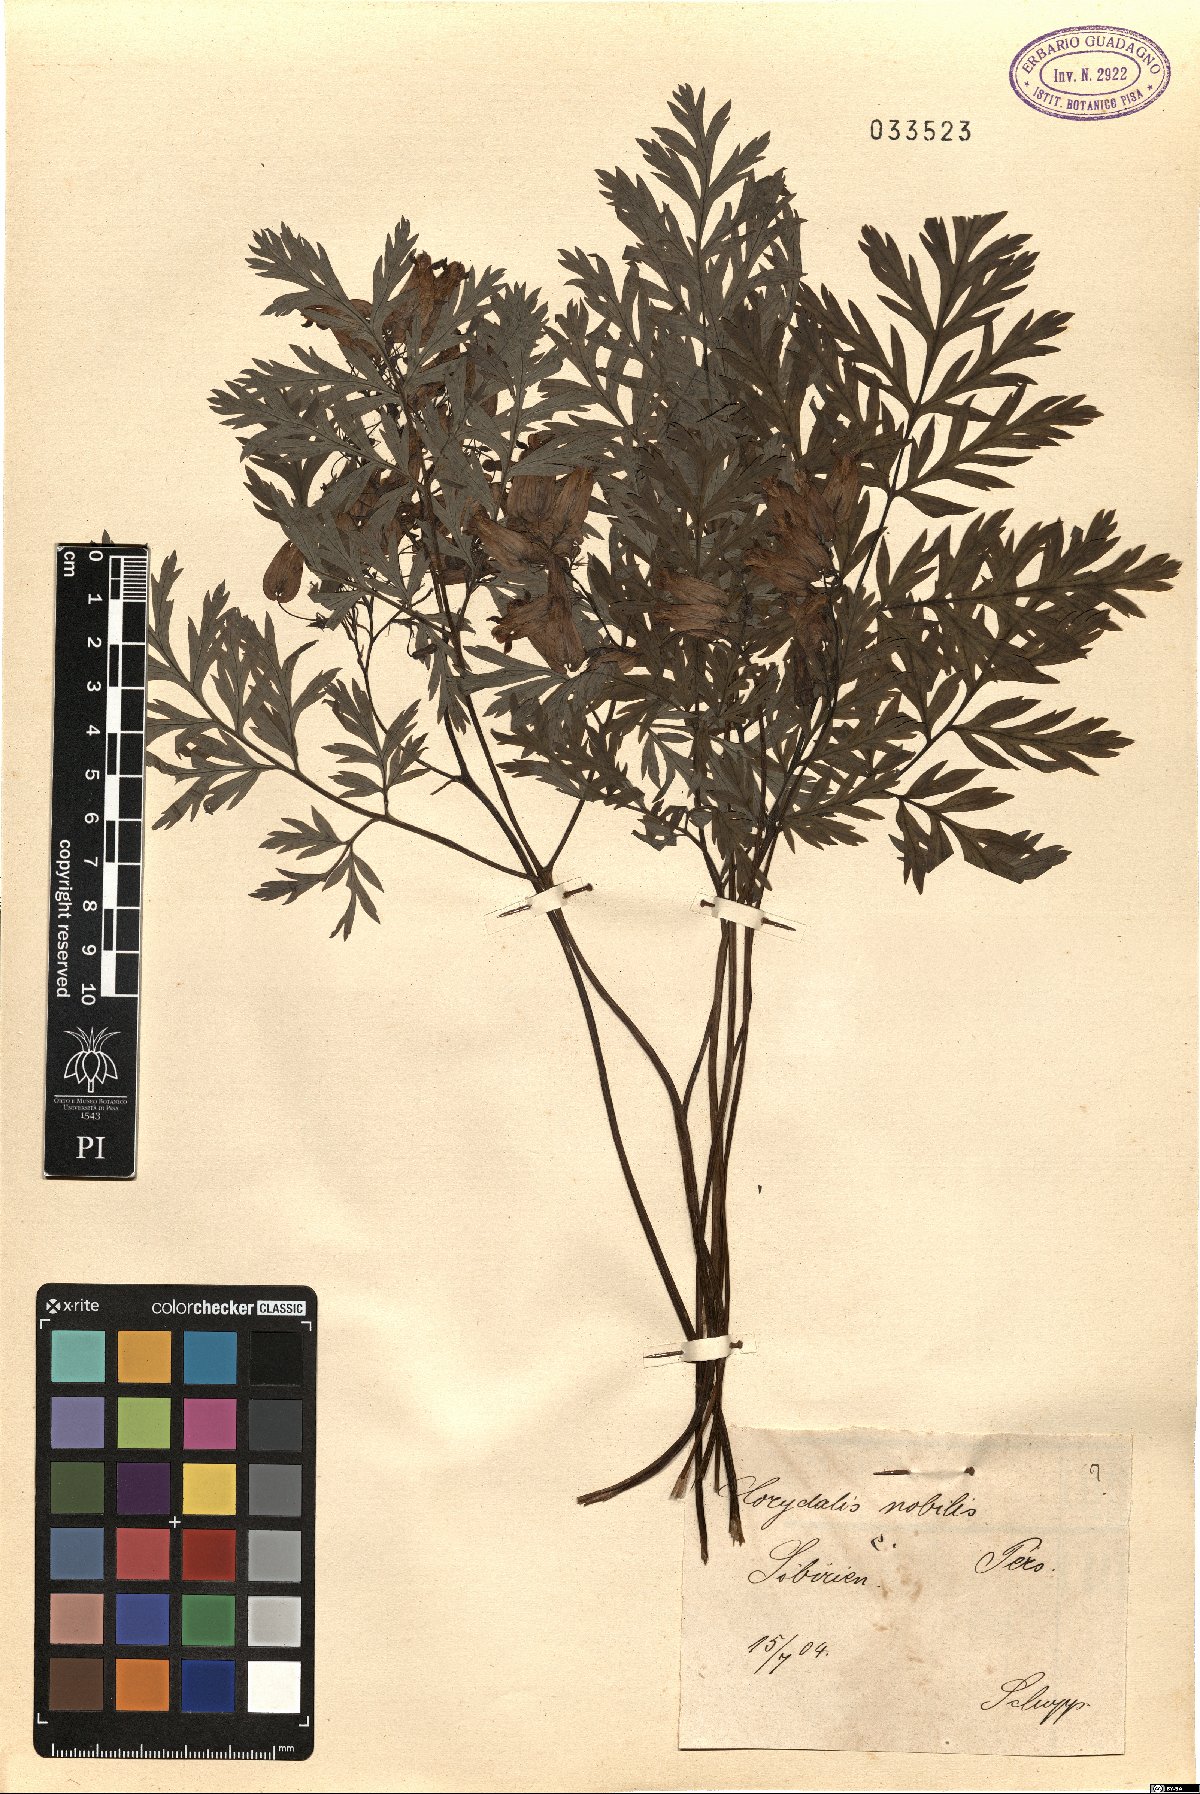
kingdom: Plantae
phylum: Tracheophyta
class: Magnoliopsida
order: Ranunculales
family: Papaveraceae
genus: Corydalis
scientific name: Corydalis nobilis
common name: Siberian corydalis
